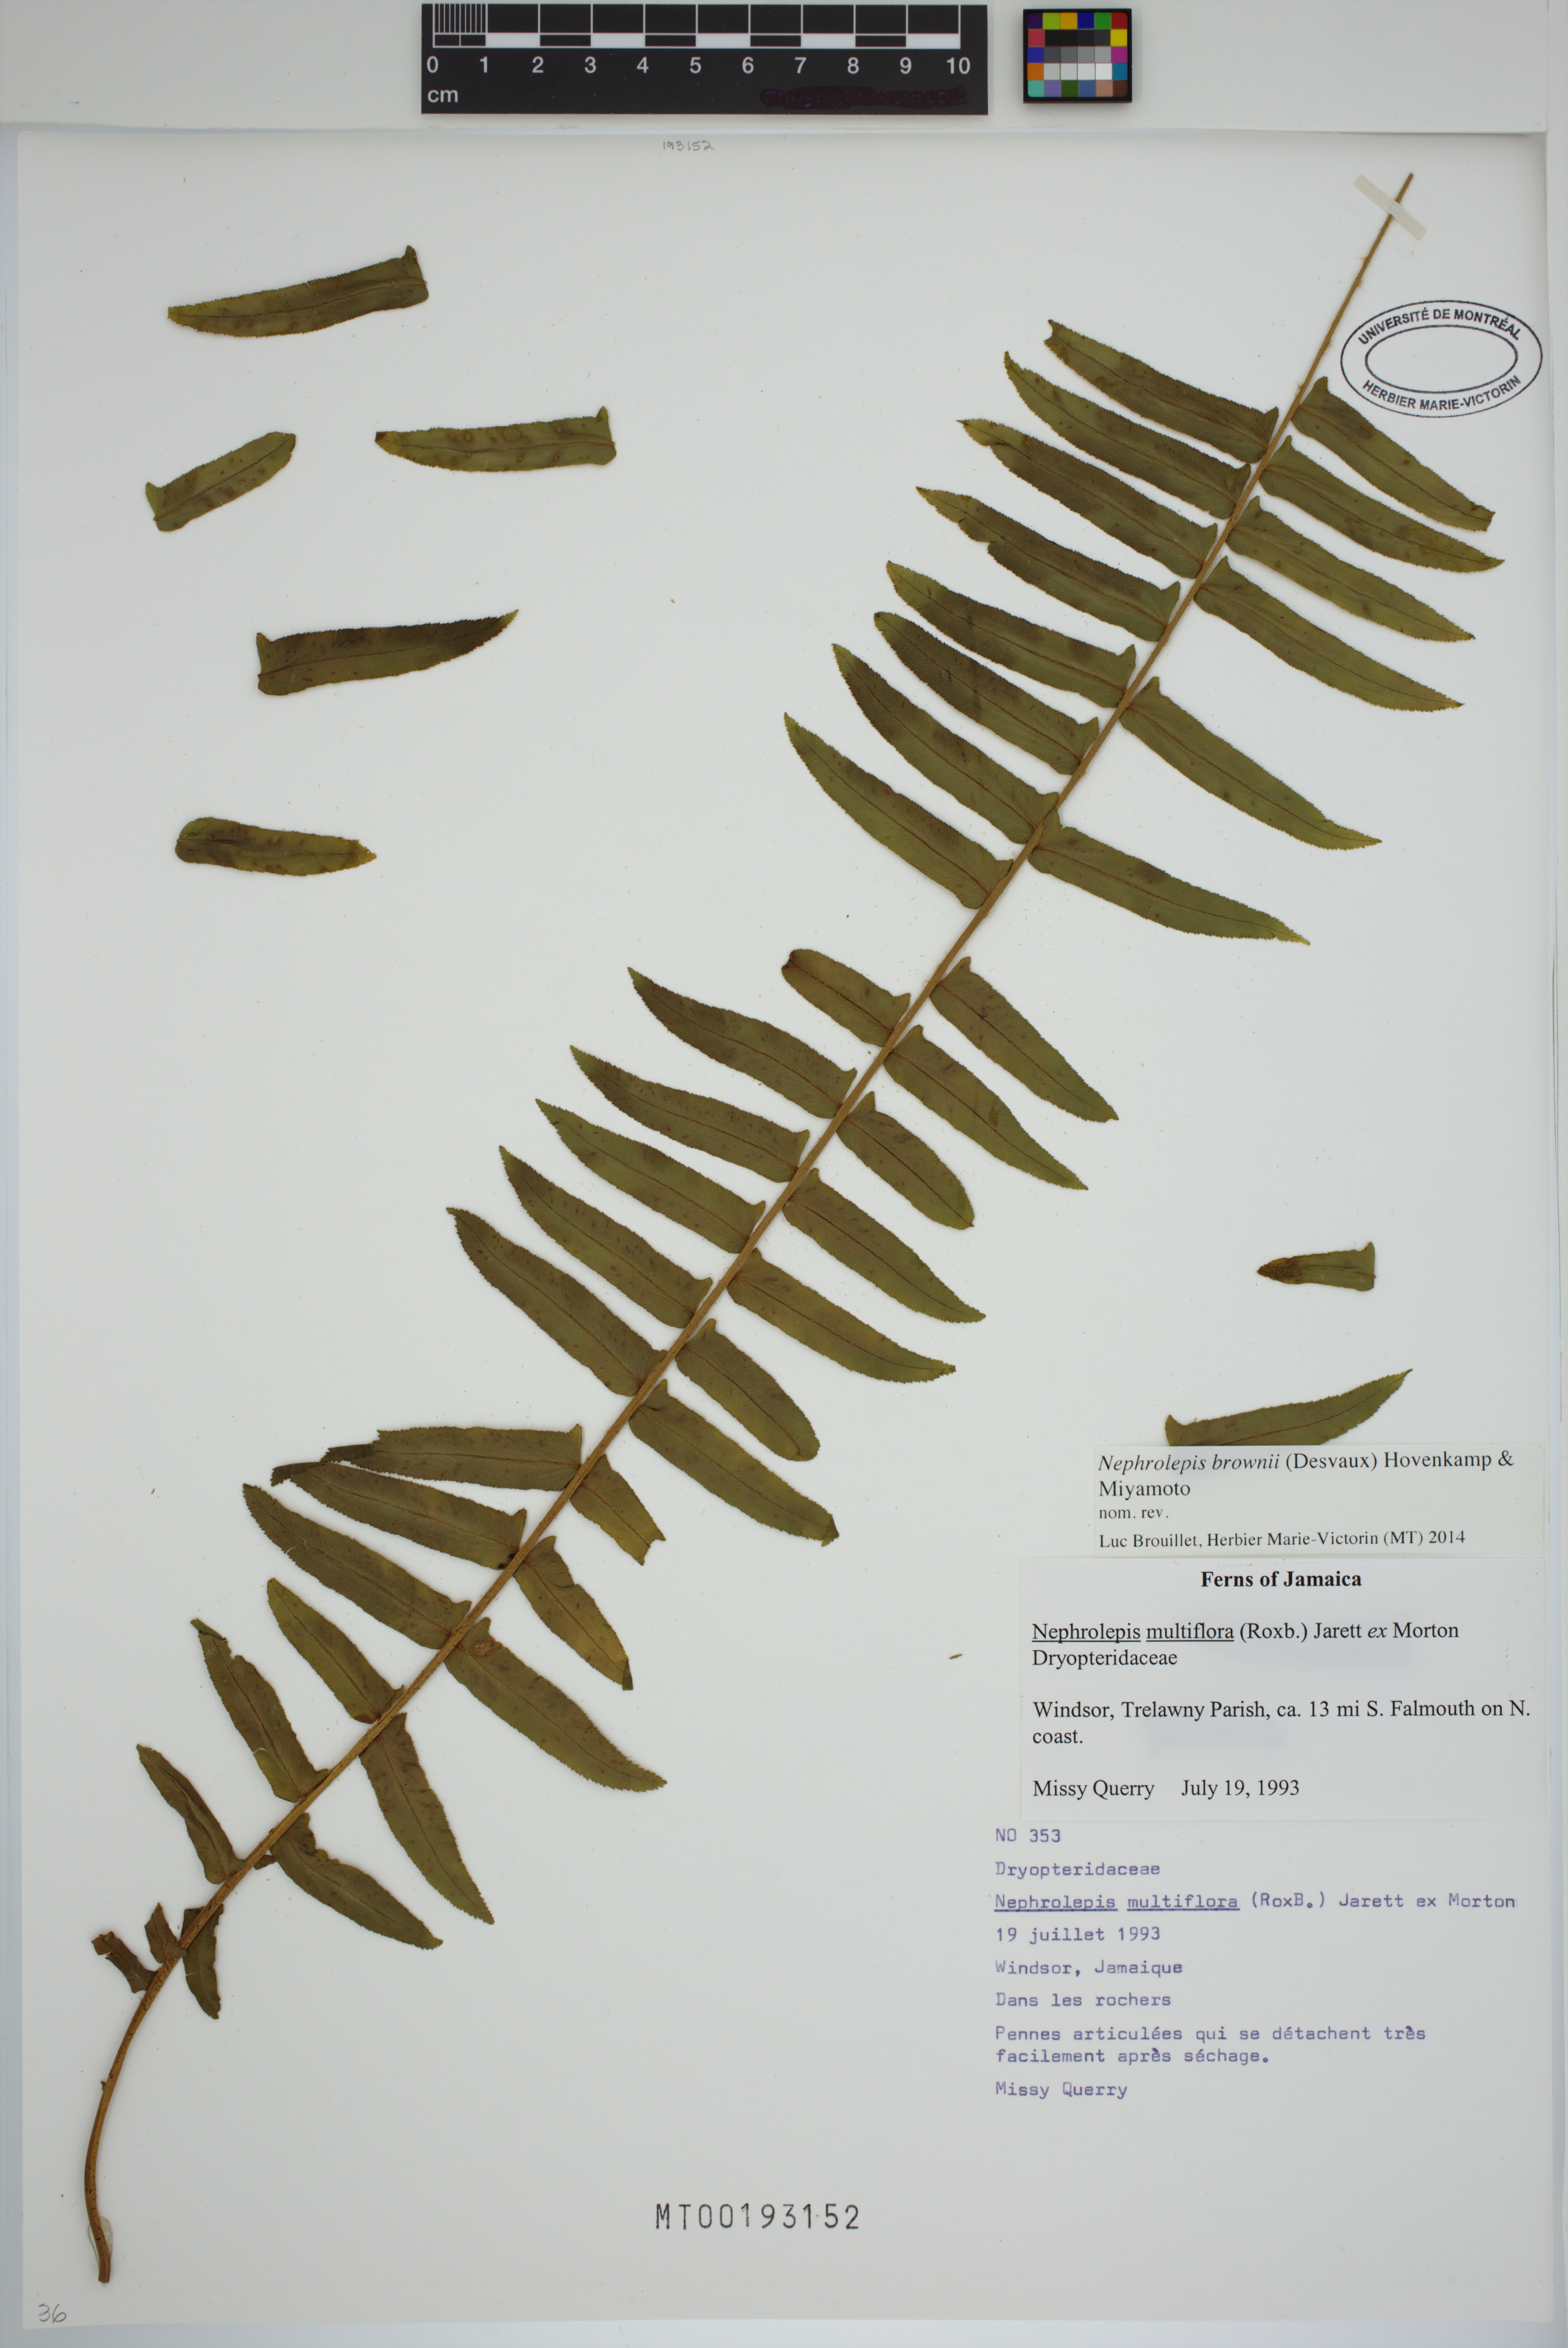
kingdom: Plantae
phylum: Tracheophyta
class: Polypodiopsida
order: Polypodiales
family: Nephrolepidaceae
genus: Nephrolepis
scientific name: Nephrolepis brownii
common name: Asian swordfern
